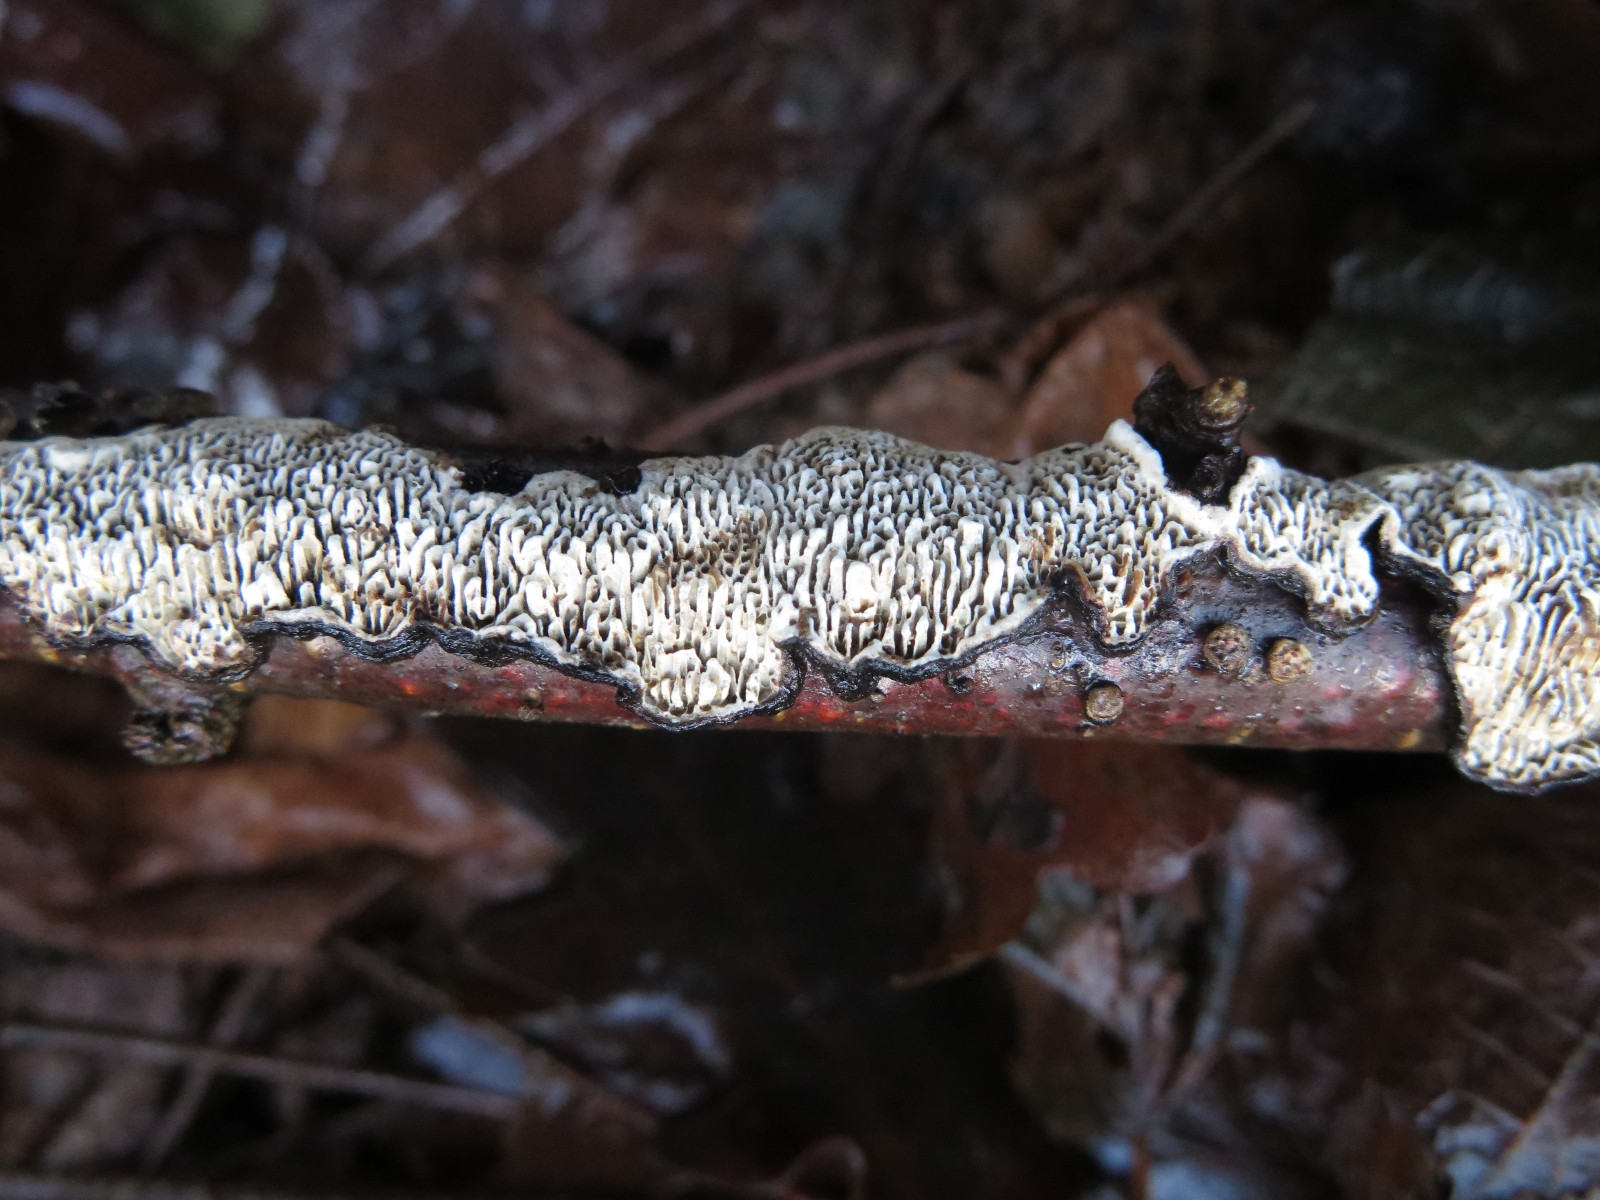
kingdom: Fungi
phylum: Basidiomycota
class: Agaricomycetes
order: Polyporales
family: Polyporaceae
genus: Podofomes
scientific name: Podofomes mollis
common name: blød begporesvamp
